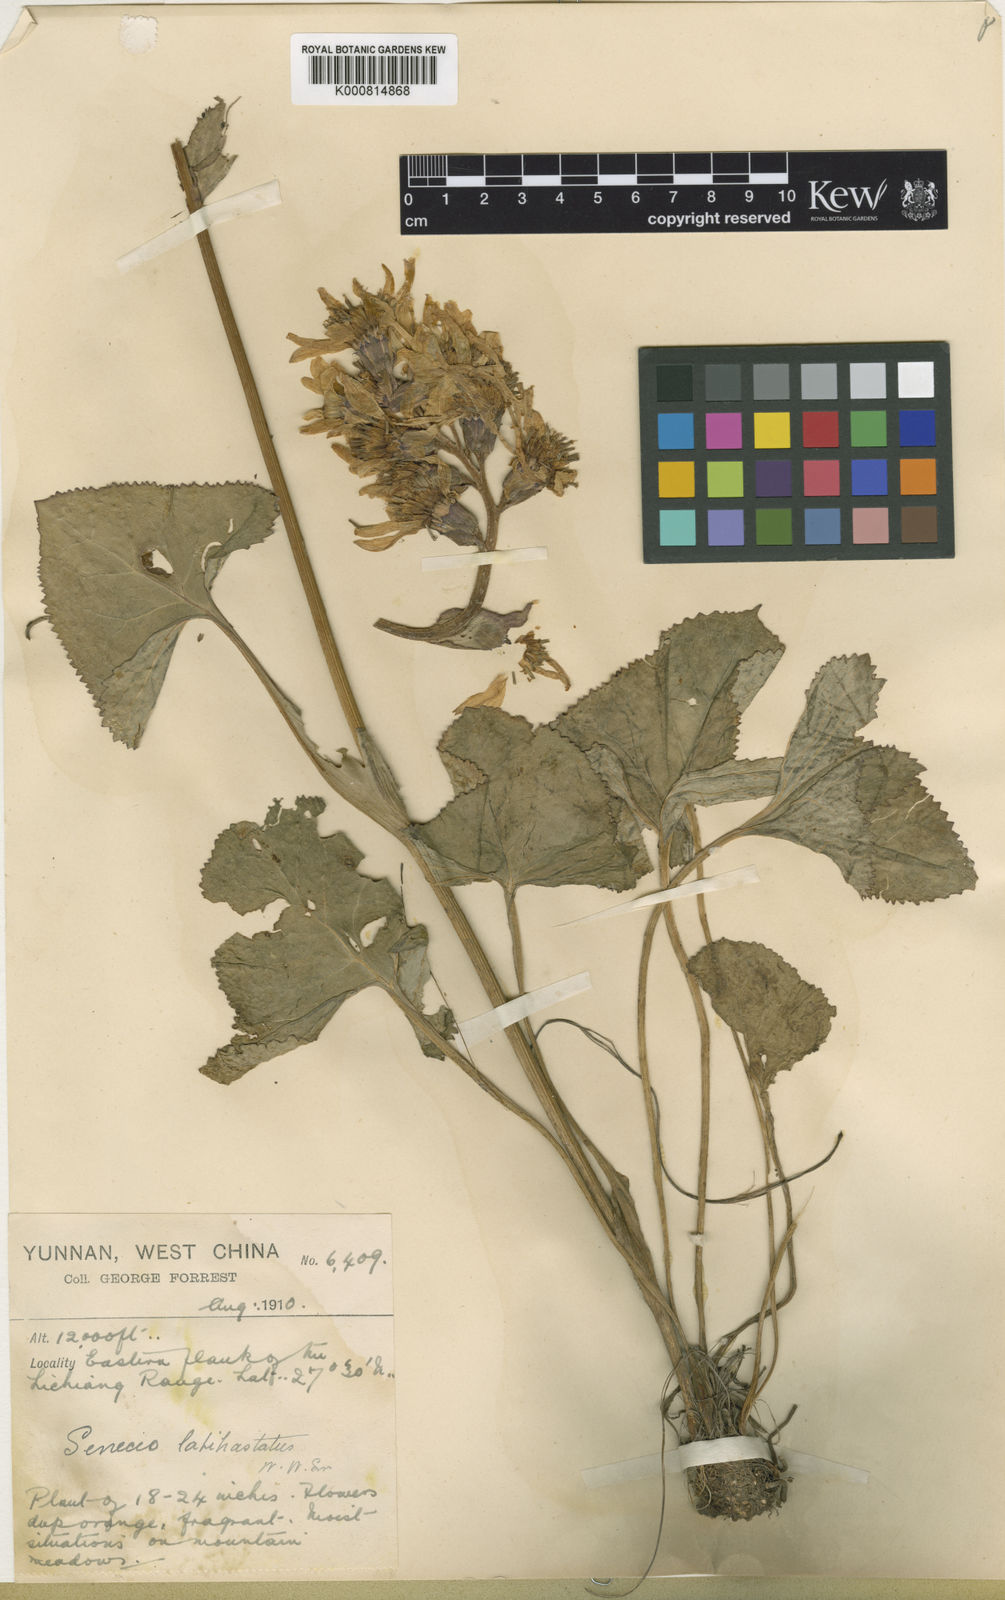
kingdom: Plantae
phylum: Tracheophyta
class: Magnoliopsida
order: Asterales
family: Asteraceae
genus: Ligularia
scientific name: Ligularia latihastata
